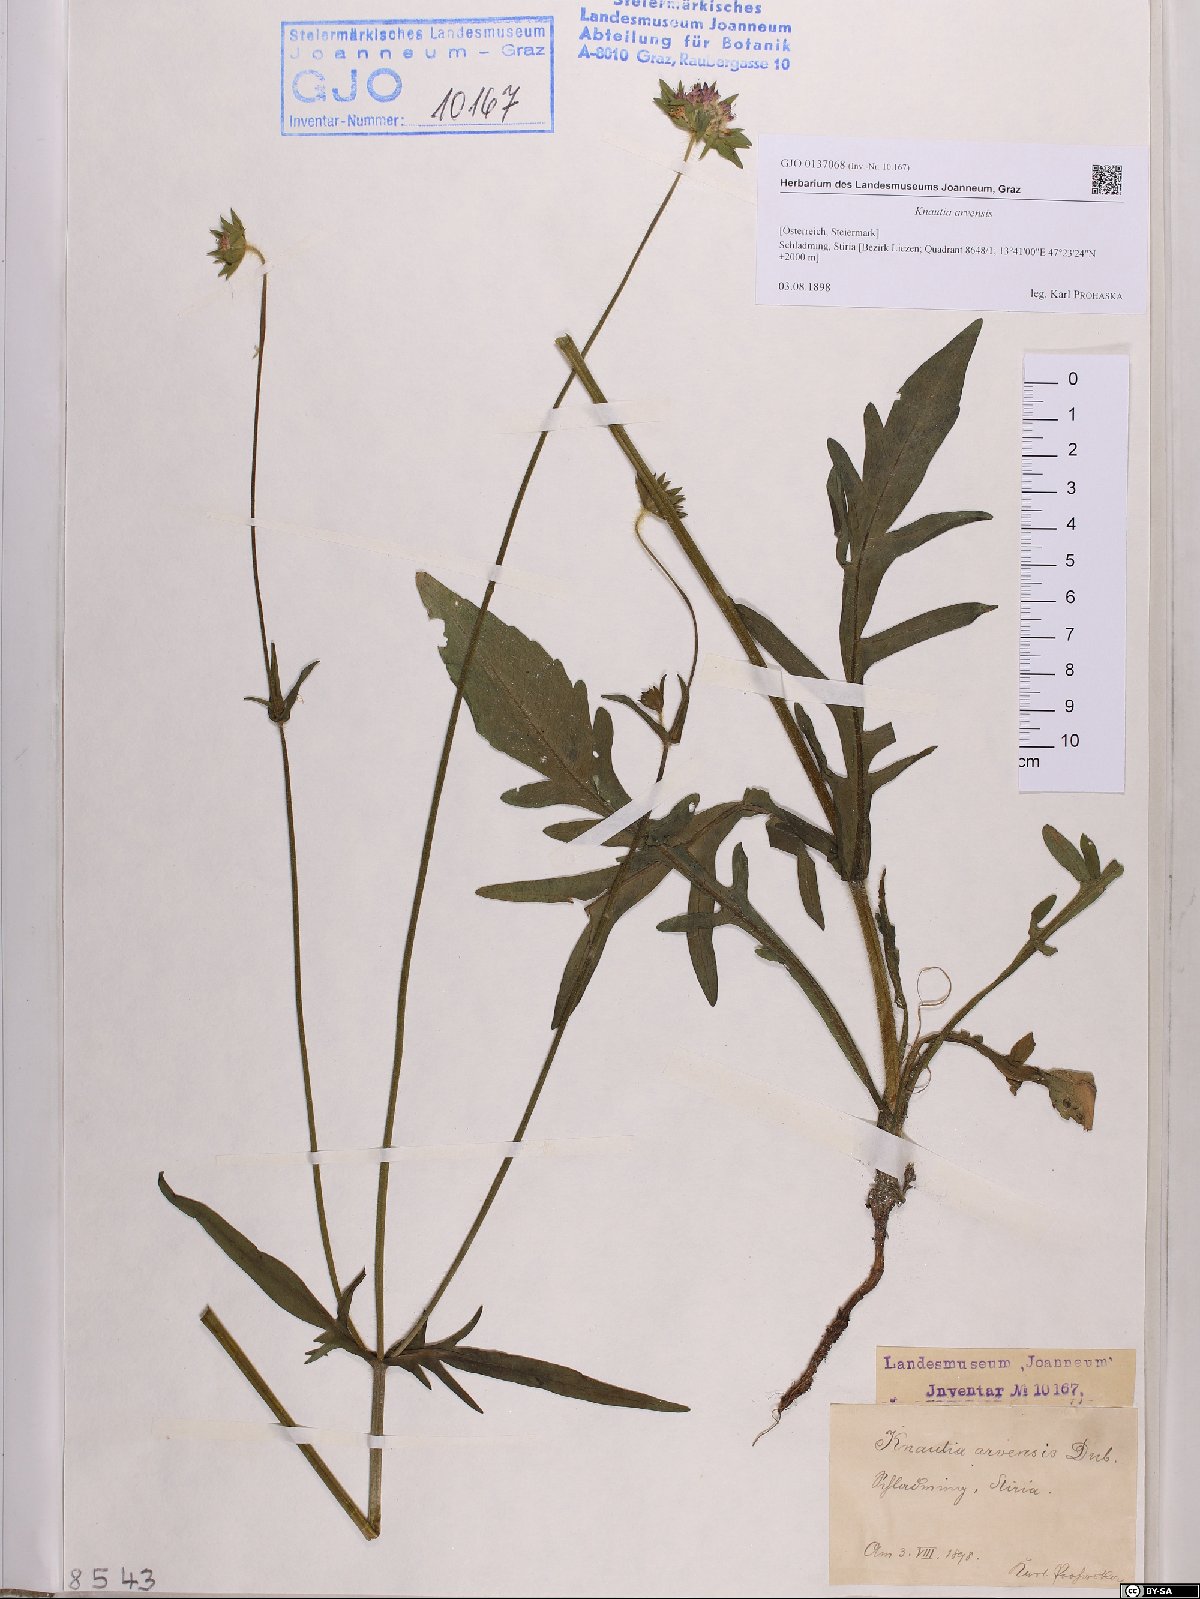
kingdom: Plantae
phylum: Tracheophyta
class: Magnoliopsida
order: Dipsacales
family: Caprifoliaceae
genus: Knautia
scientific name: Knautia arvensis
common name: Field scabiosa
